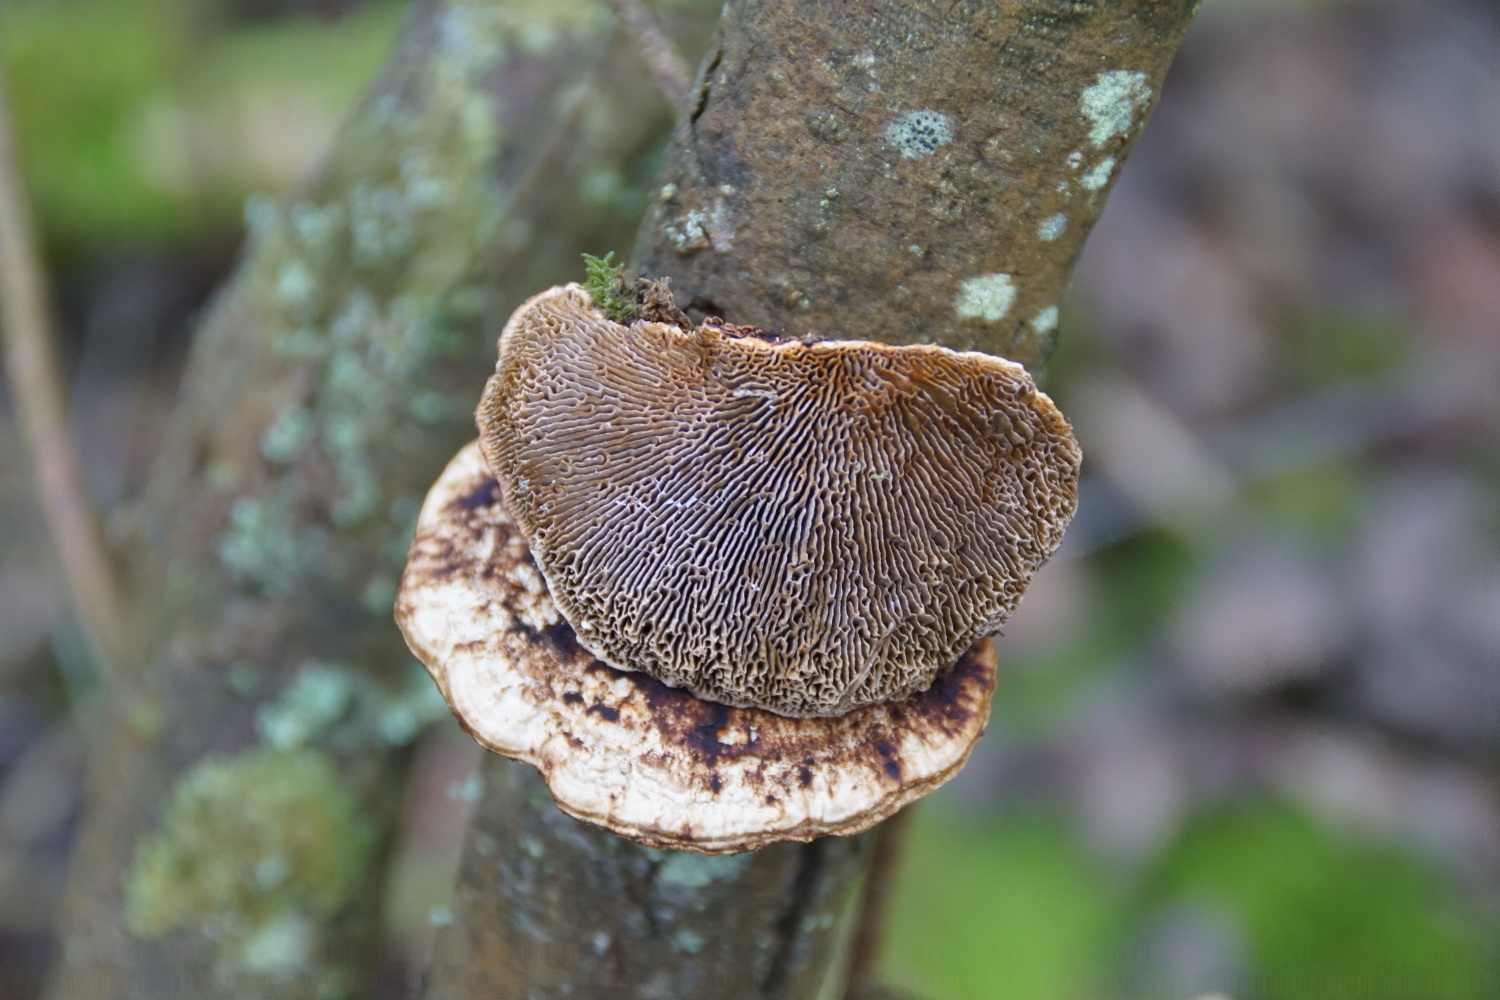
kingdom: Fungi
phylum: Basidiomycota
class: Agaricomycetes
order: Polyporales
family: Polyporaceae
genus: Daedaleopsis
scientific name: Daedaleopsis confragosa
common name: rødmende læderporesvamp
